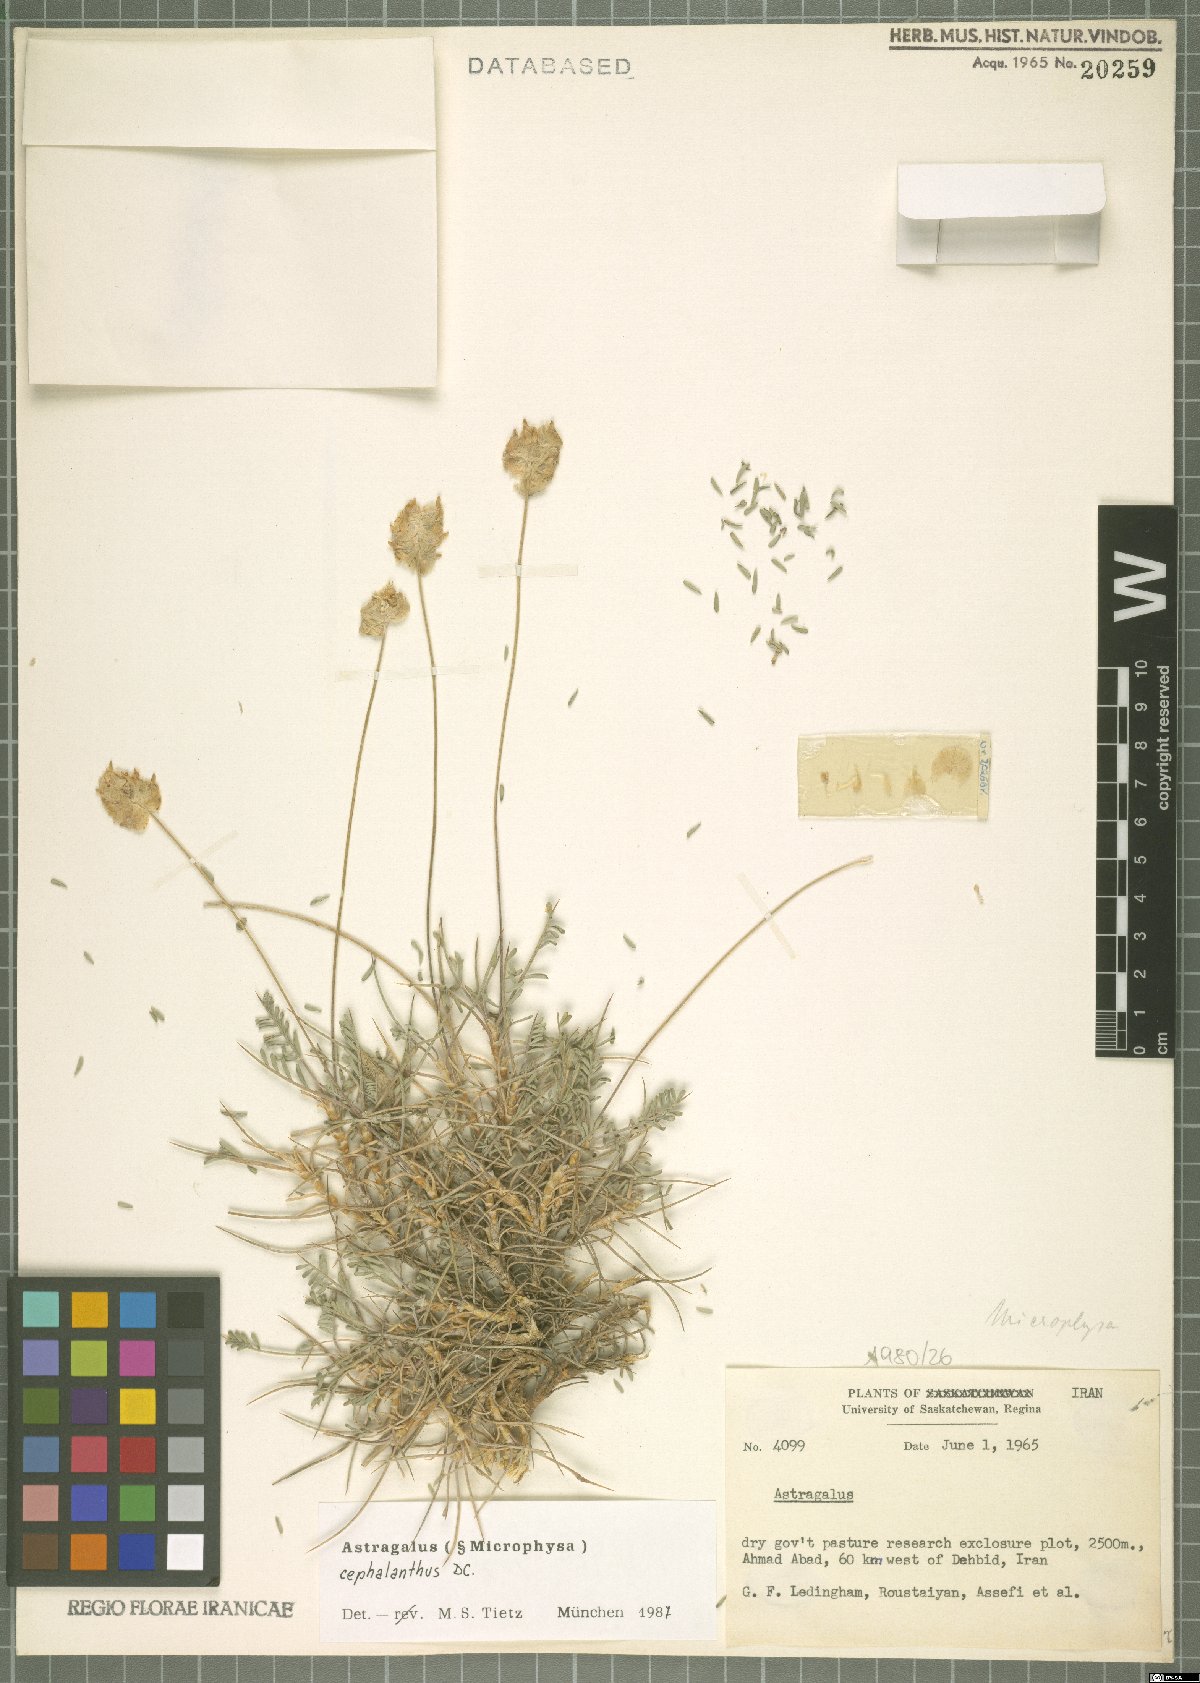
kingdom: Plantae
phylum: Tracheophyta
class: Magnoliopsida
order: Fabales
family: Fabaceae
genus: Astragalus
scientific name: Astragalus cephalanthus
